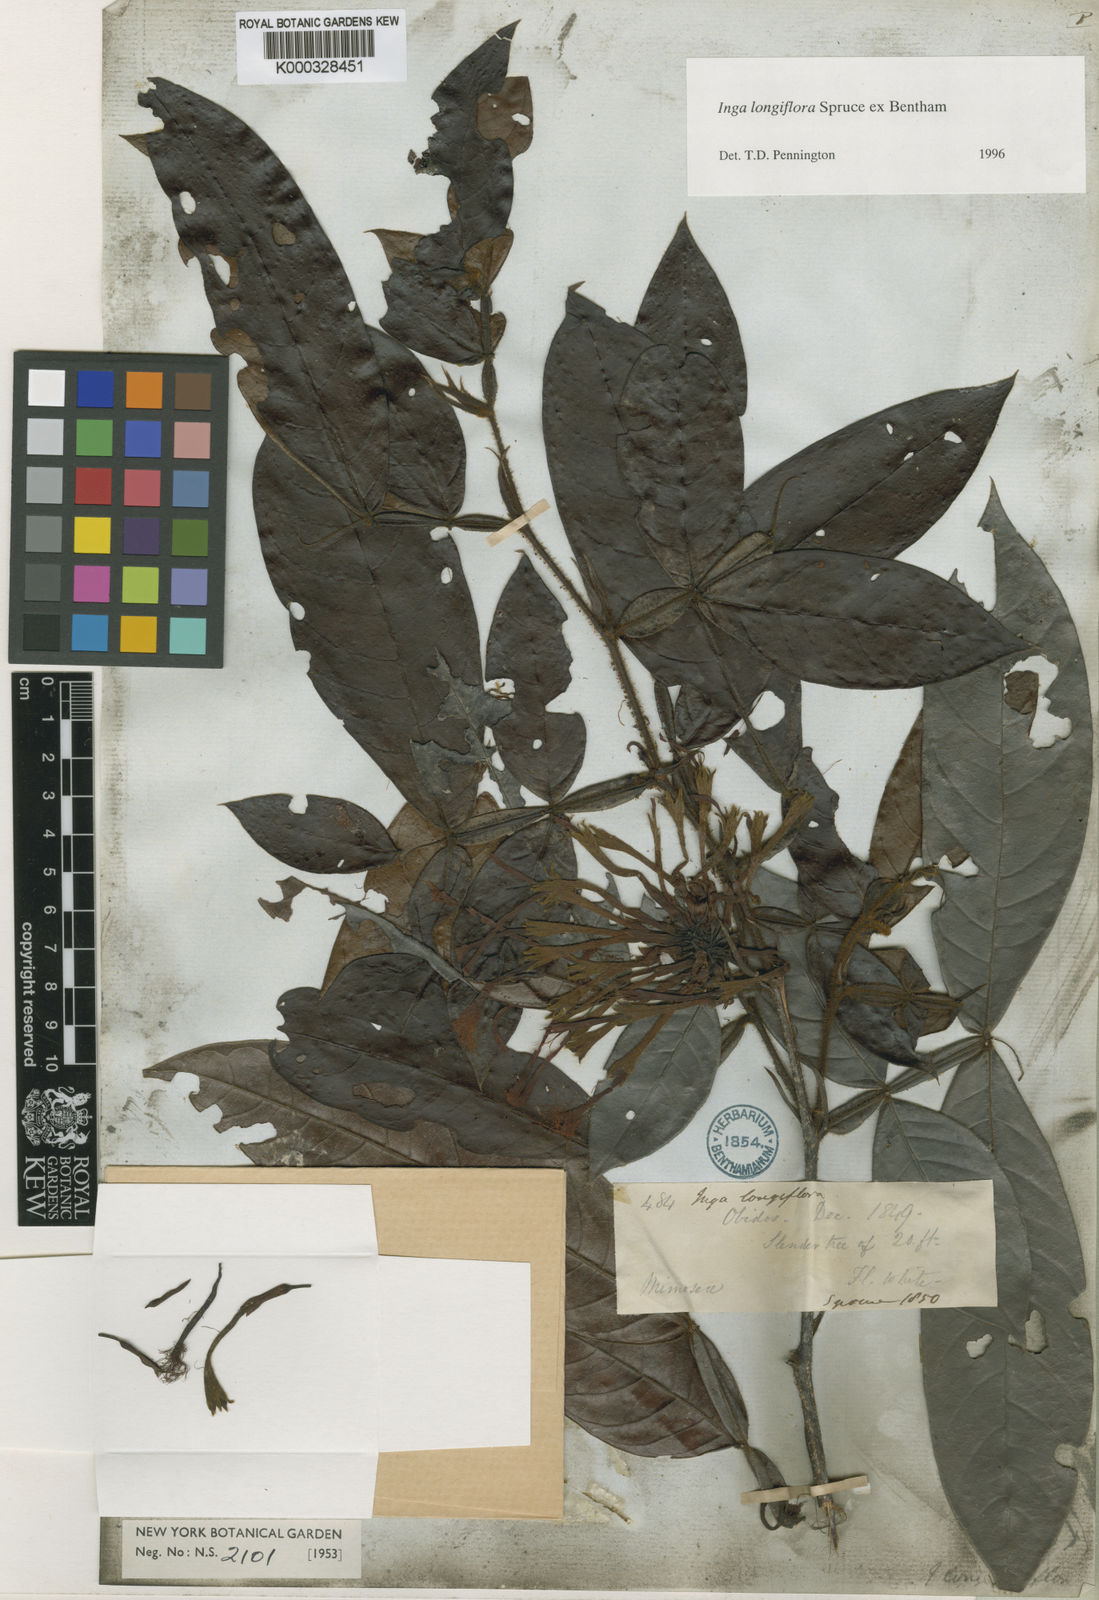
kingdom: Plantae
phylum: Tracheophyta
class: Magnoliopsida
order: Fabales
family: Fabaceae
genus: Inga
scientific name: Inga longiflora
